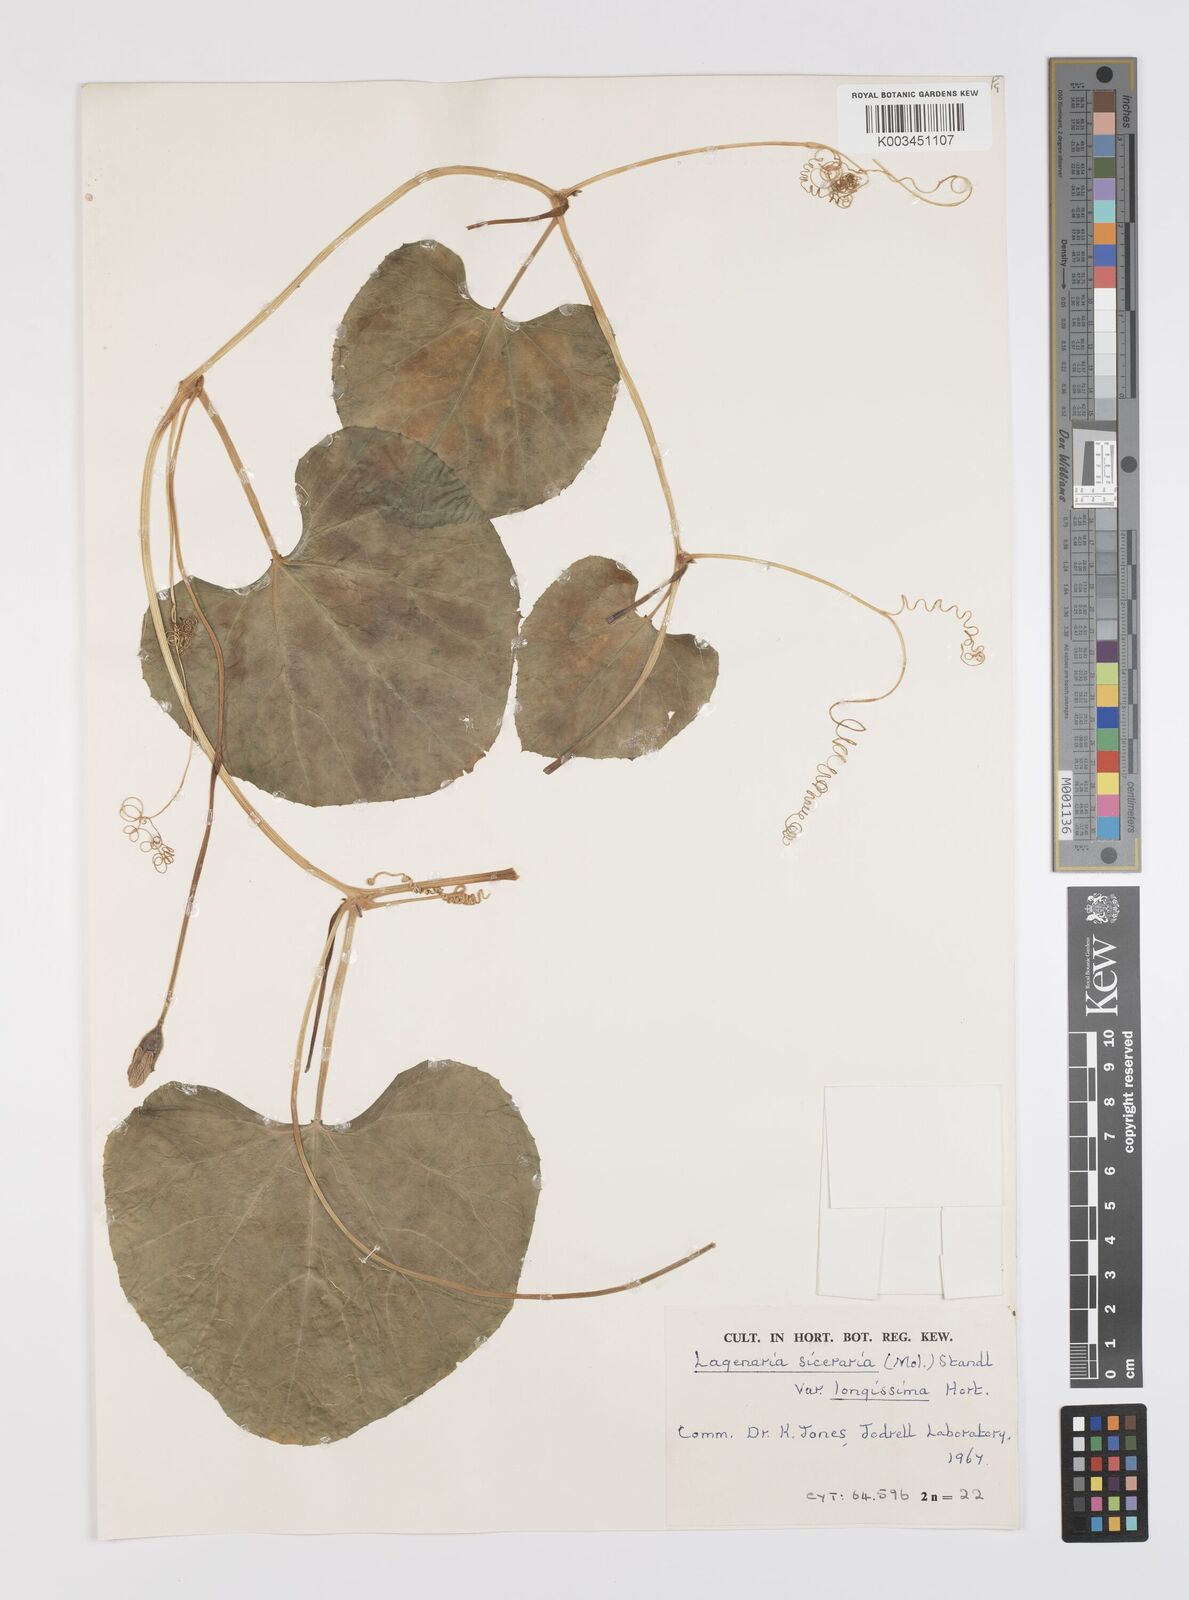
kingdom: Plantae
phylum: Tracheophyta
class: Magnoliopsida
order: Cucurbitales
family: Cucurbitaceae
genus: Lagenaria
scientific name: Lagenaria siceraria
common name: Bottle gourd
